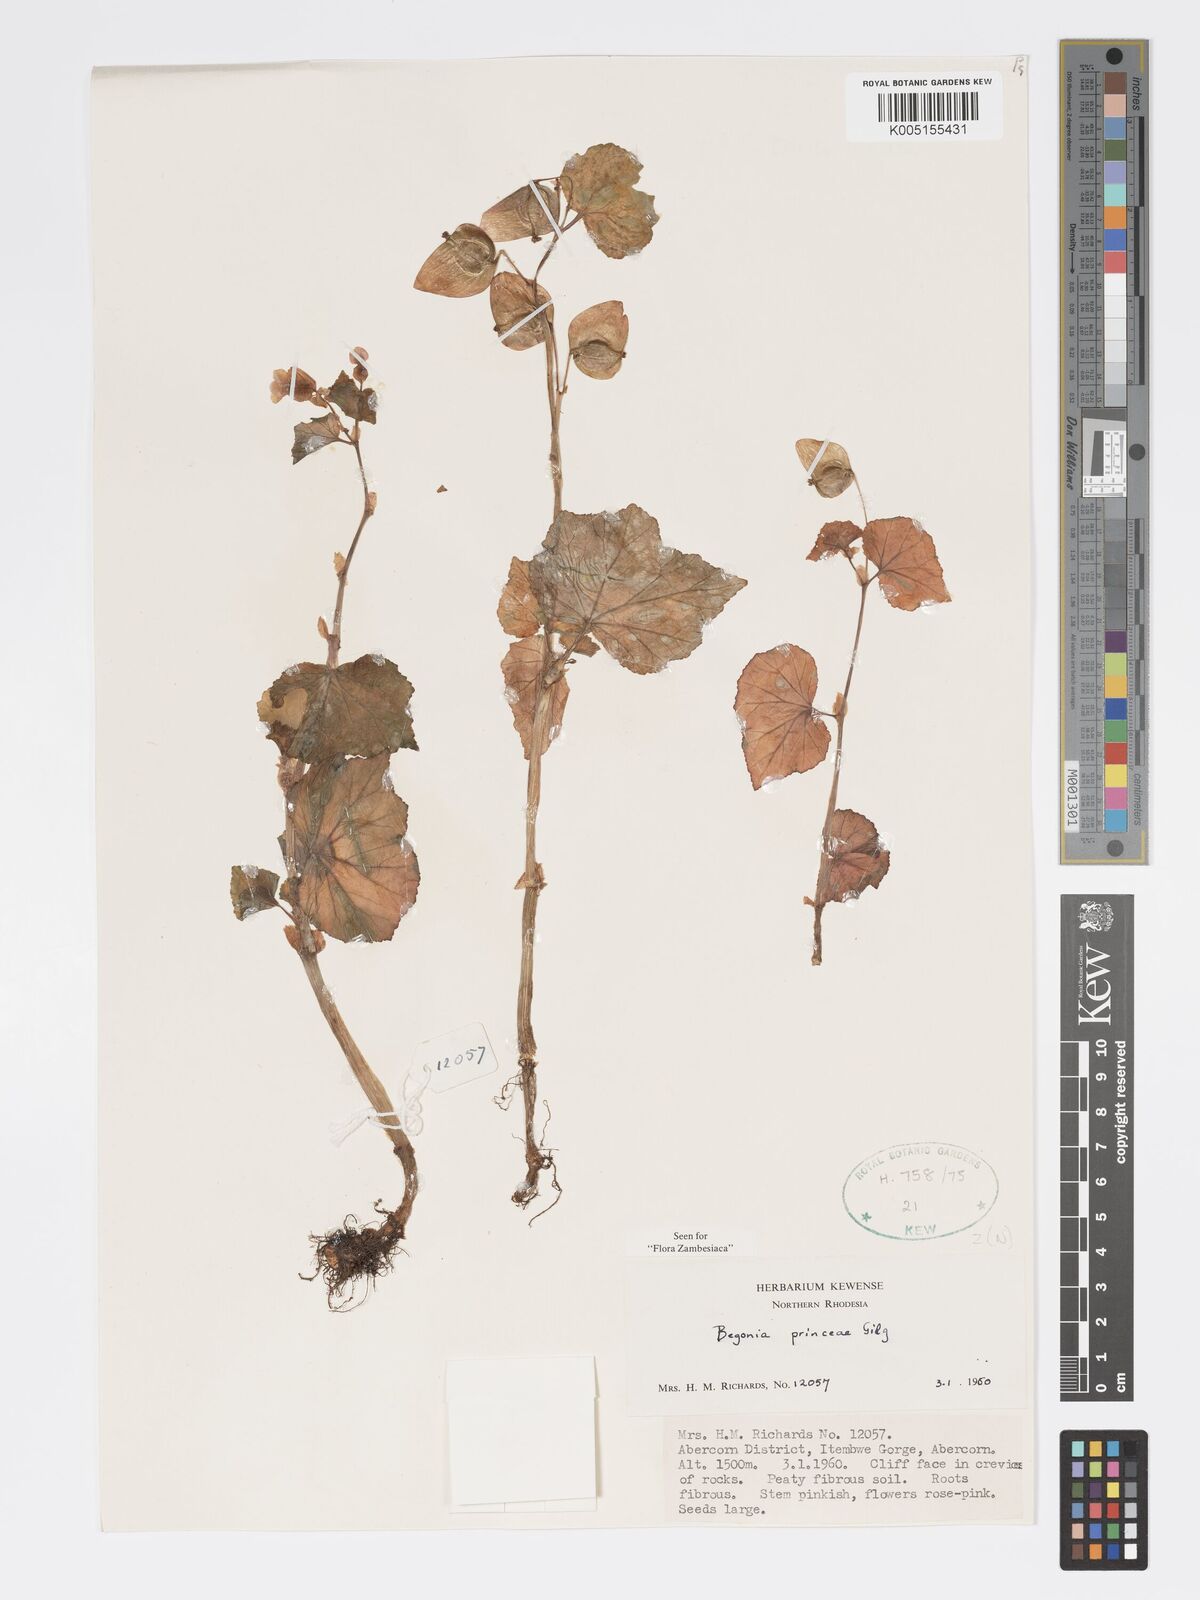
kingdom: Plantae
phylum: Tracheophyta
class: Magnoliopsida
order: Cucurbitales
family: Begoniaceae
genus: Begonia
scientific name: Begonia princeae
